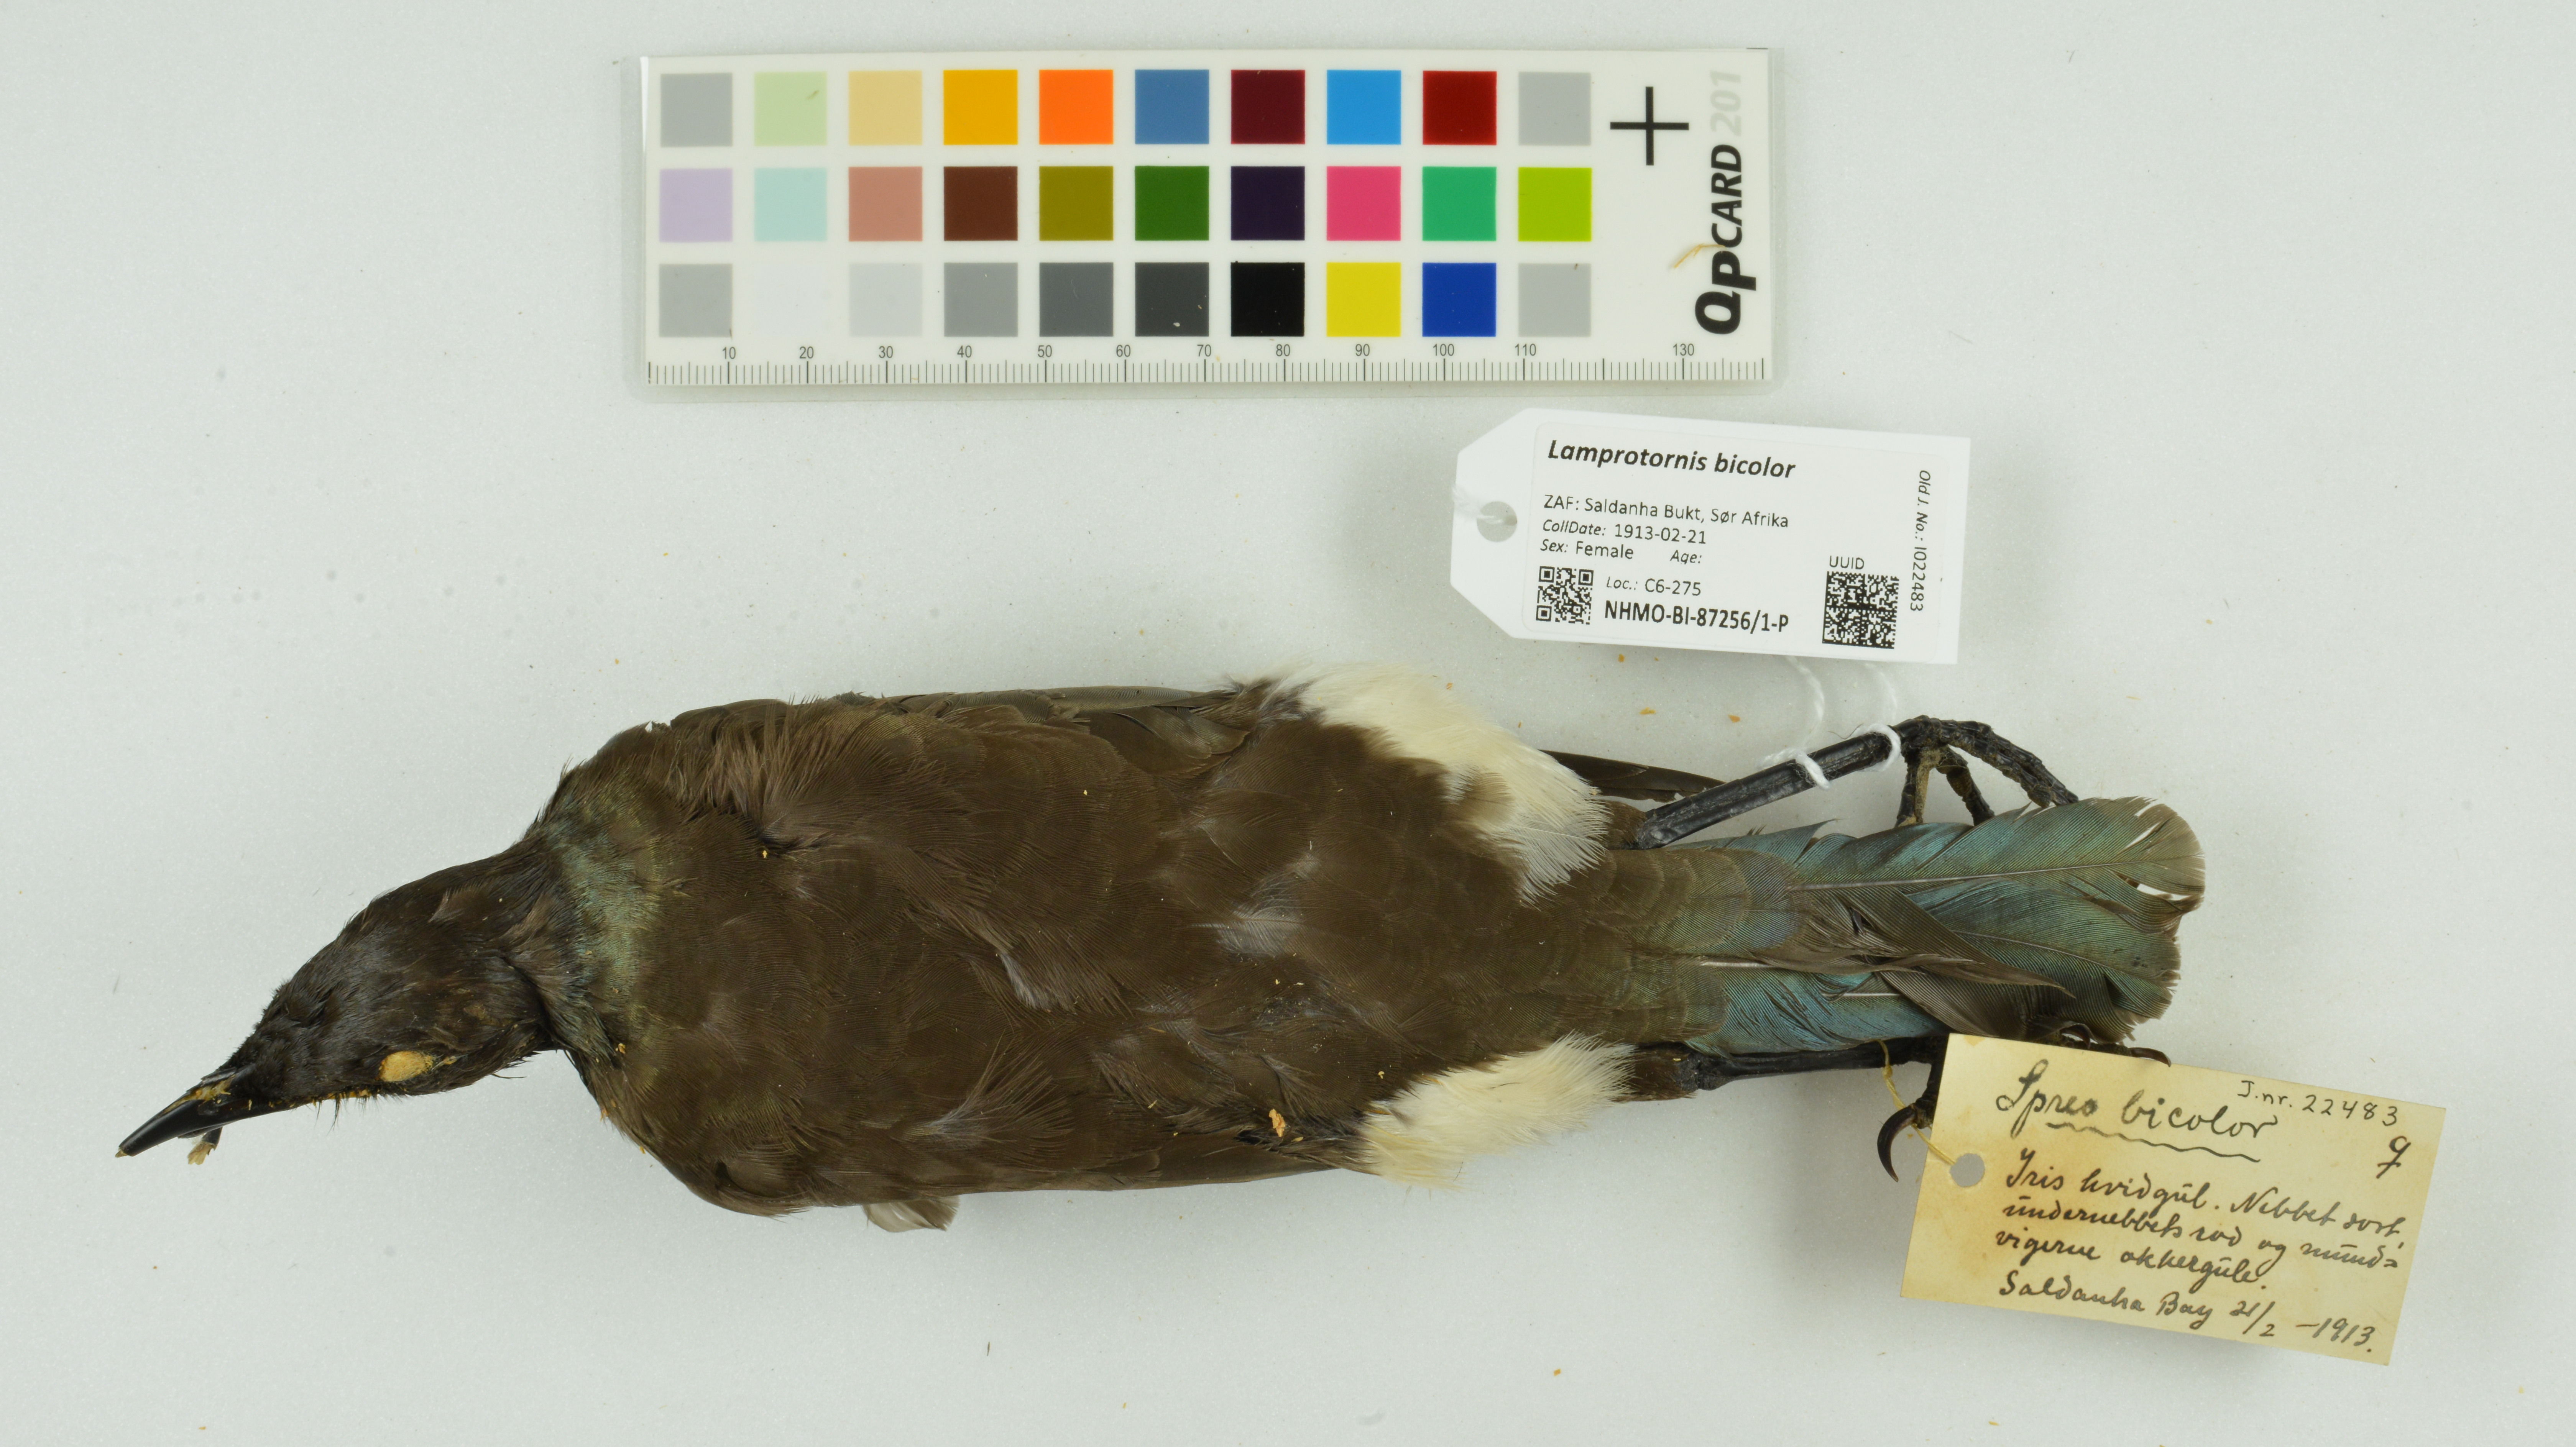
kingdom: Animalia
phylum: Chordata
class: Aves
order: Passeriformes
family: Sturnidae
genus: Lamprotornis
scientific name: Lamprotornis bicolor
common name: Pied starling
